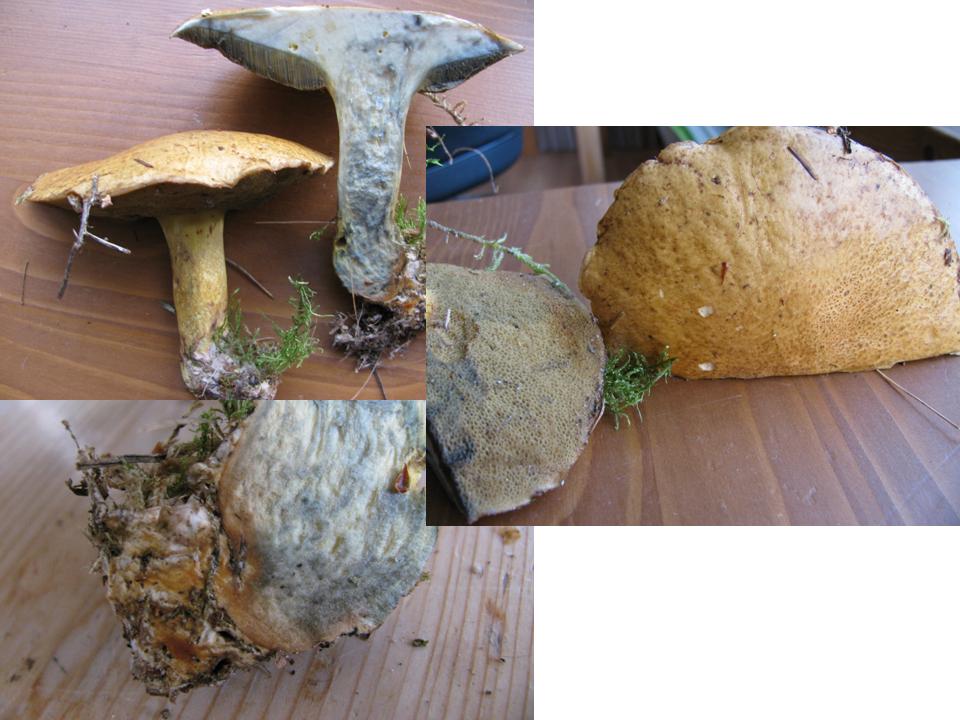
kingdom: Fungi
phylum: Basidiomycota
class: Agaricomycetes
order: Boletales
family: Suillaceae
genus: Suillus
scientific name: Suillus variegatus
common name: broget slimrørhat
